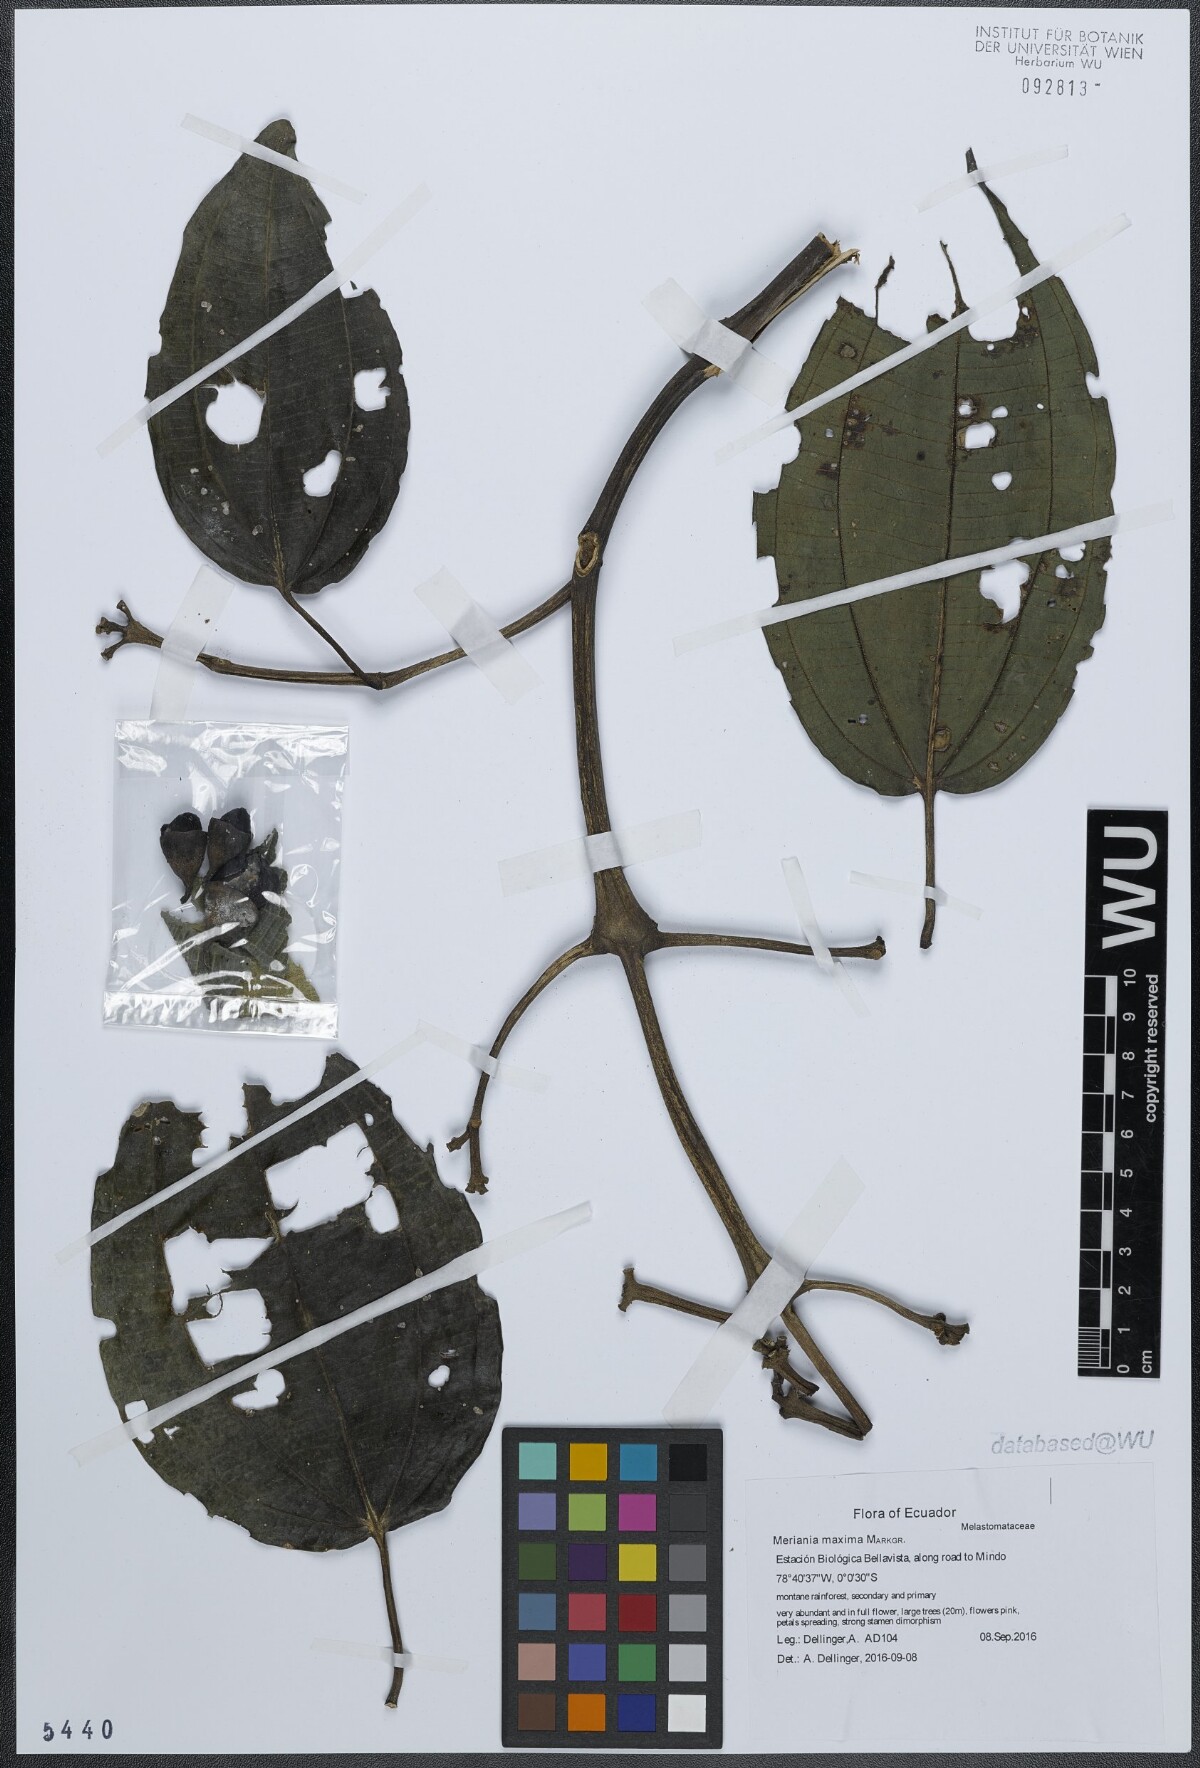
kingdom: Plantae
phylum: Tracheophyta
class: Magnoliopsida
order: Myrtales
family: Melastomataceae
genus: Meriania
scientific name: Meriania maxima
